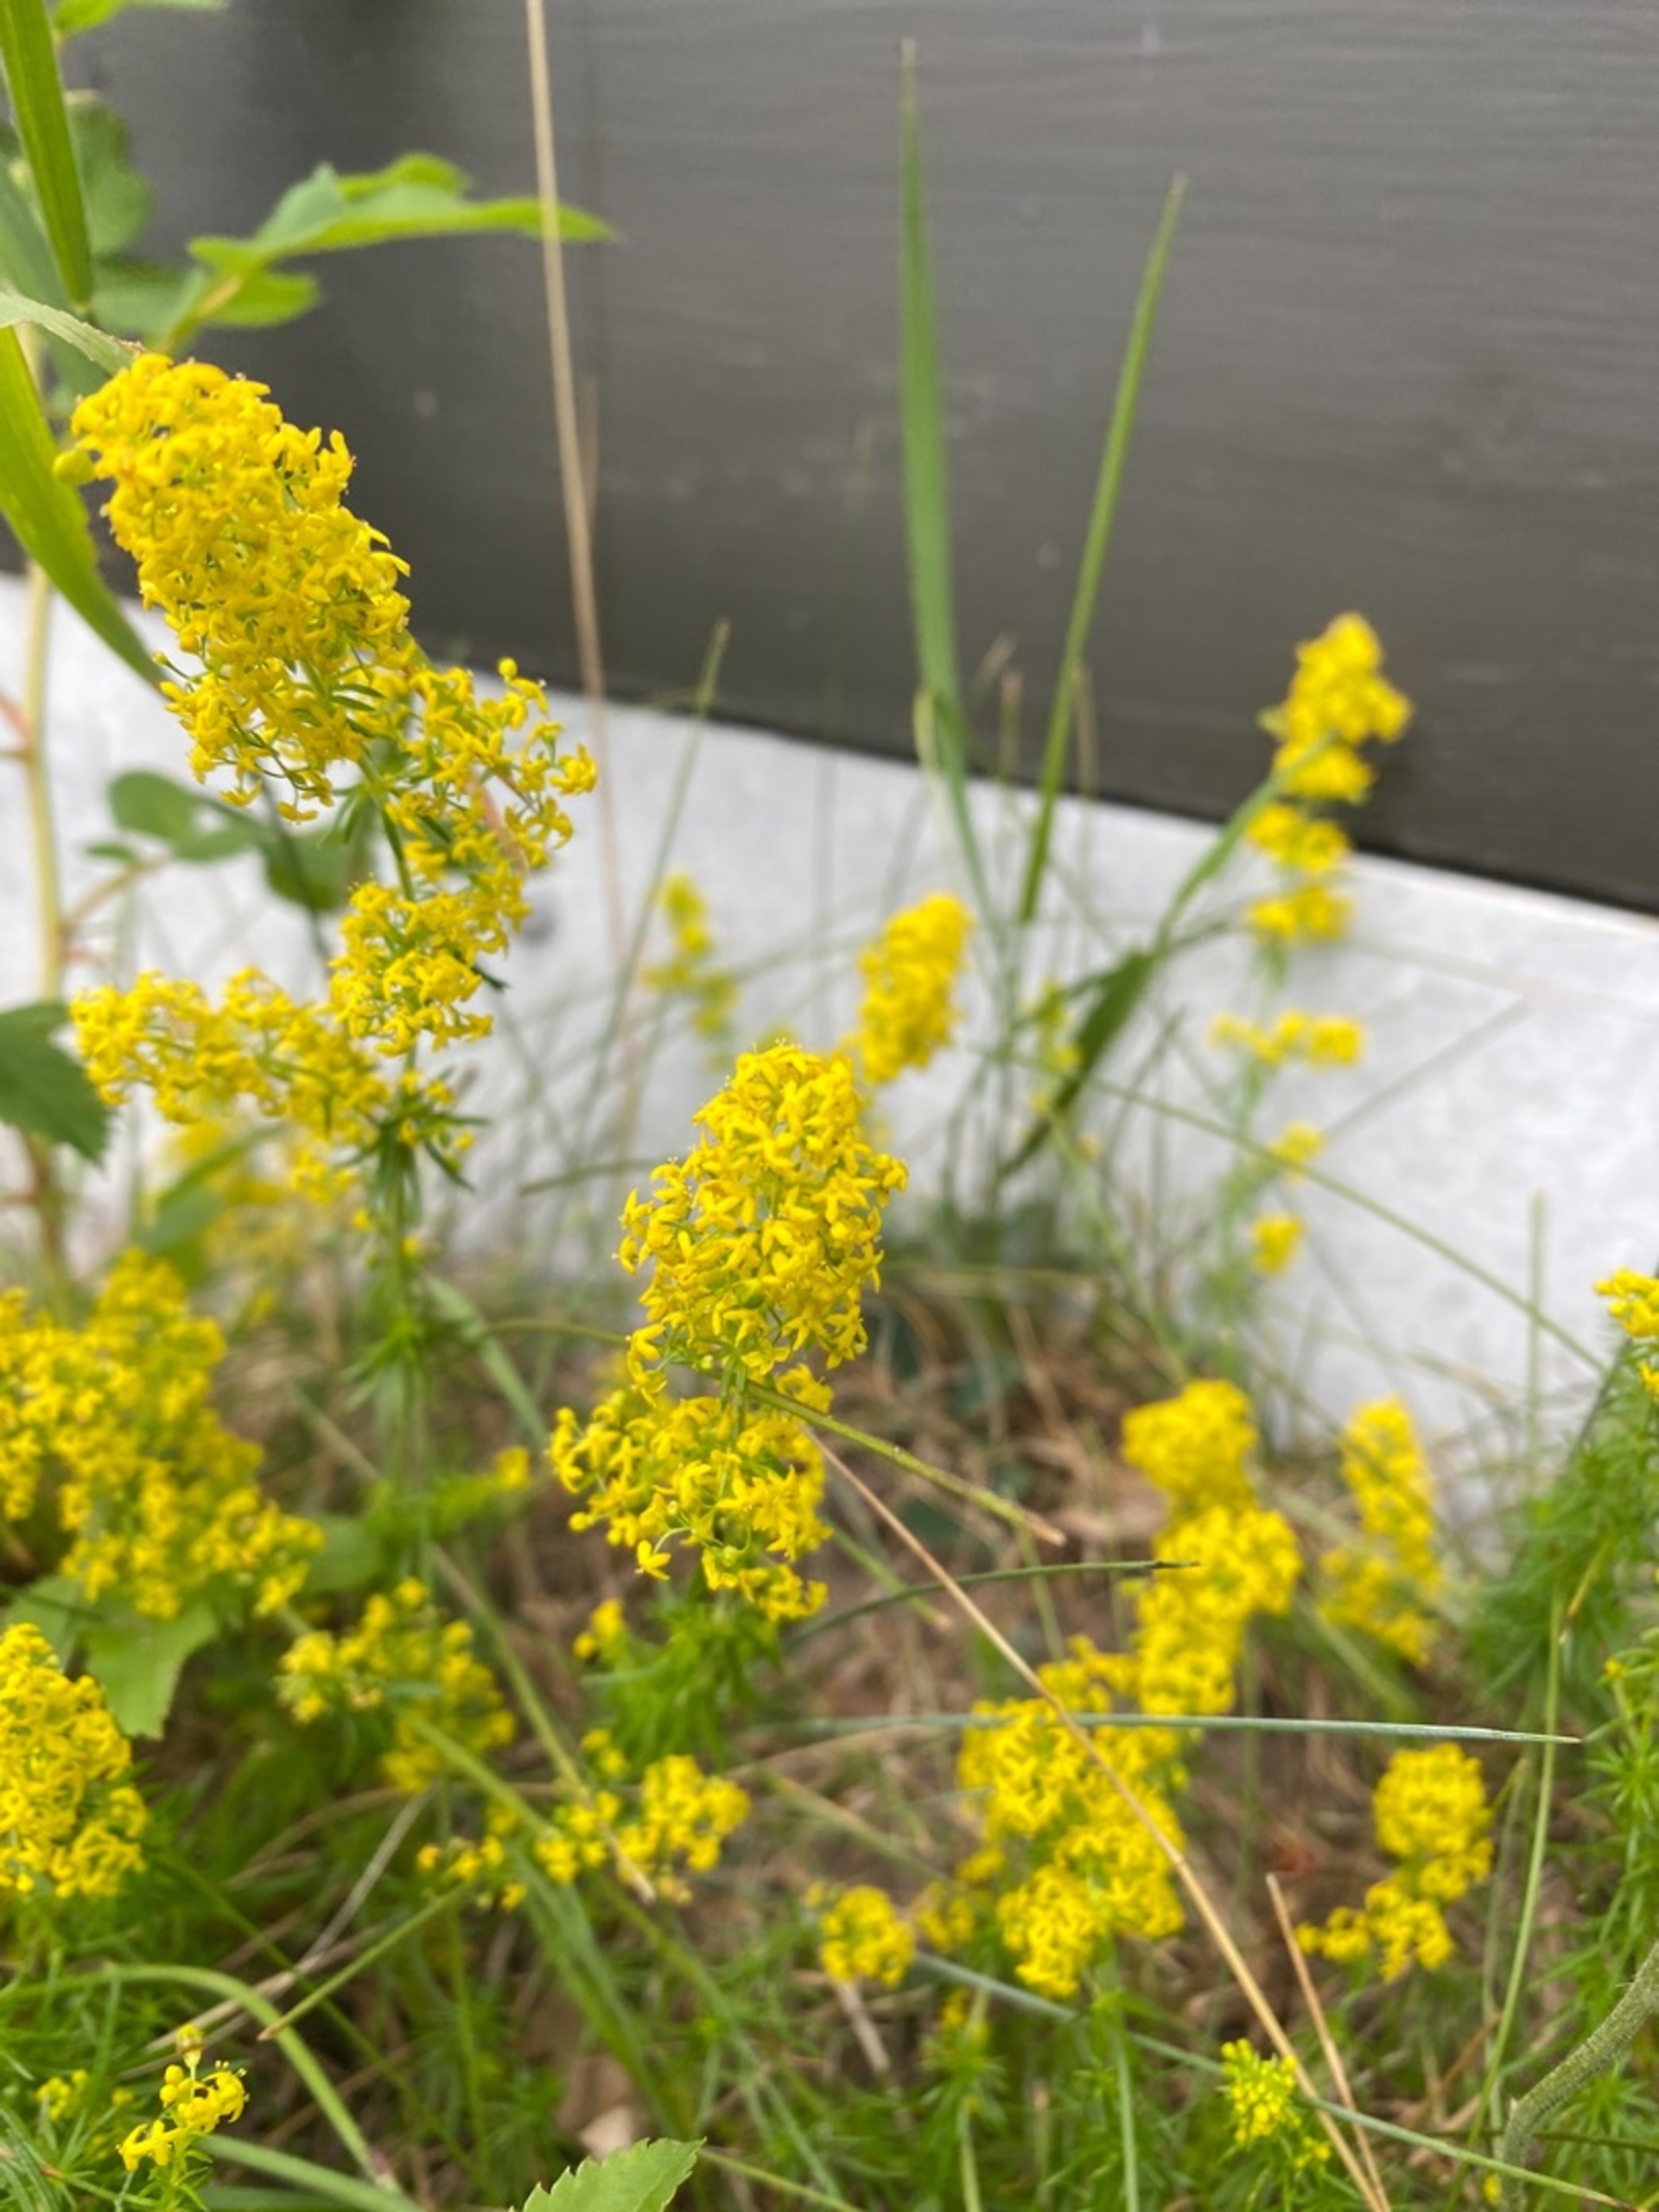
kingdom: Plantae
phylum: Tracheophyta
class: Magnoliopsida
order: Gentianales
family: Rubiaceae
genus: Galium
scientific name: Galium verum
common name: Gul snerre
